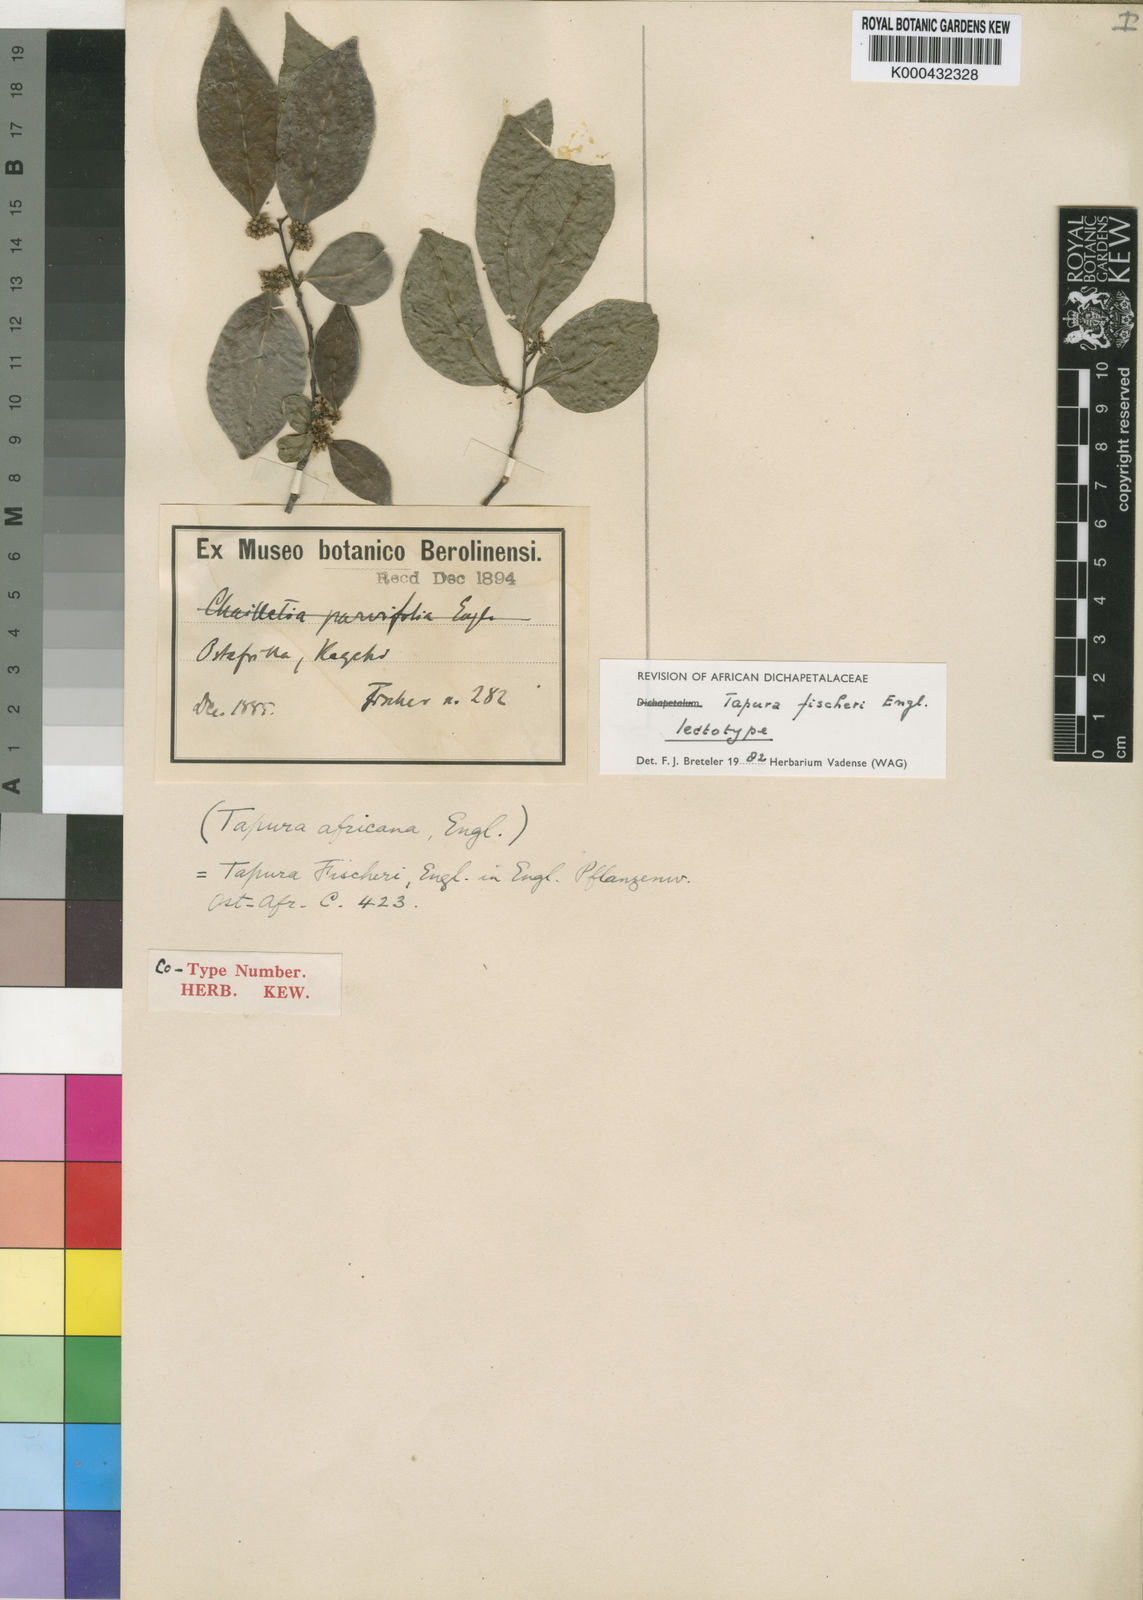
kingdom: Plantae
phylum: Tracheophyta
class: Magnoliopsida
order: Malpighiales
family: Dichapetalaceae
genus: Tapura
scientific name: Tapura fischeri
